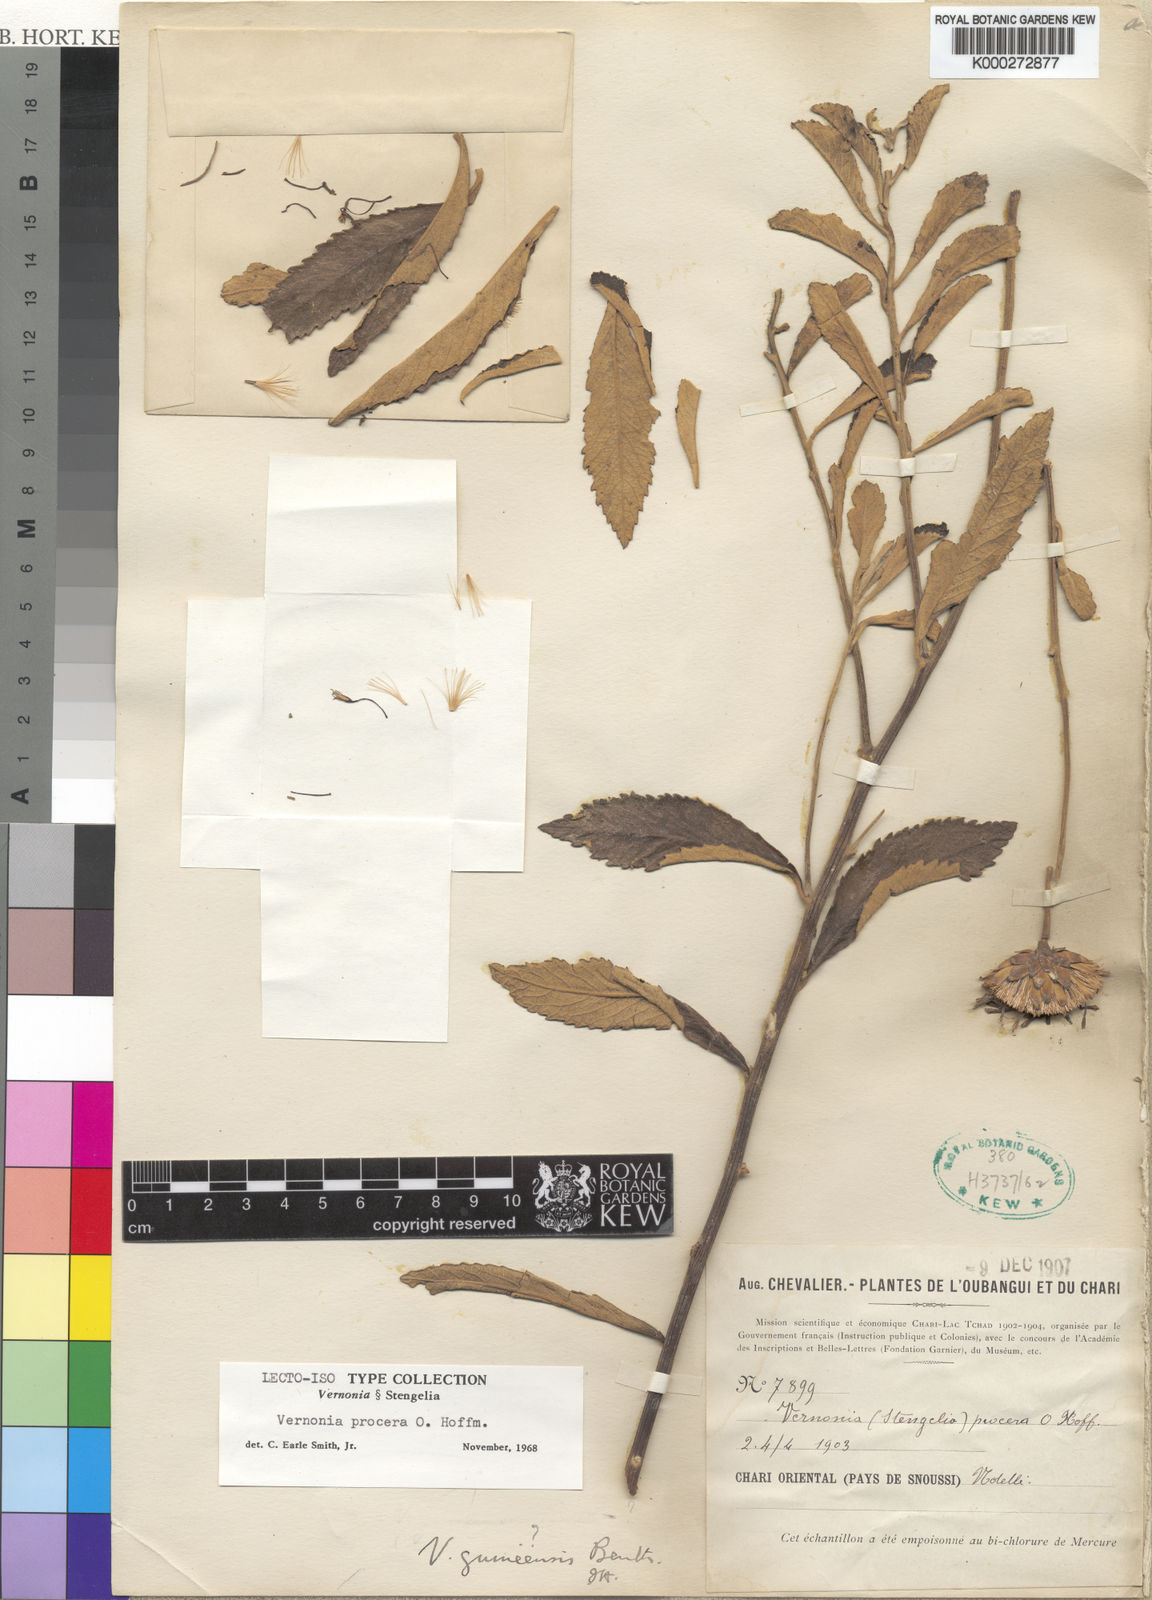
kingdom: Plantae
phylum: Tracheophyta
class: Magnoliopsida
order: Asterales
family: Asteraceae
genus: Baccharoides
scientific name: Baccharoides guineensis
